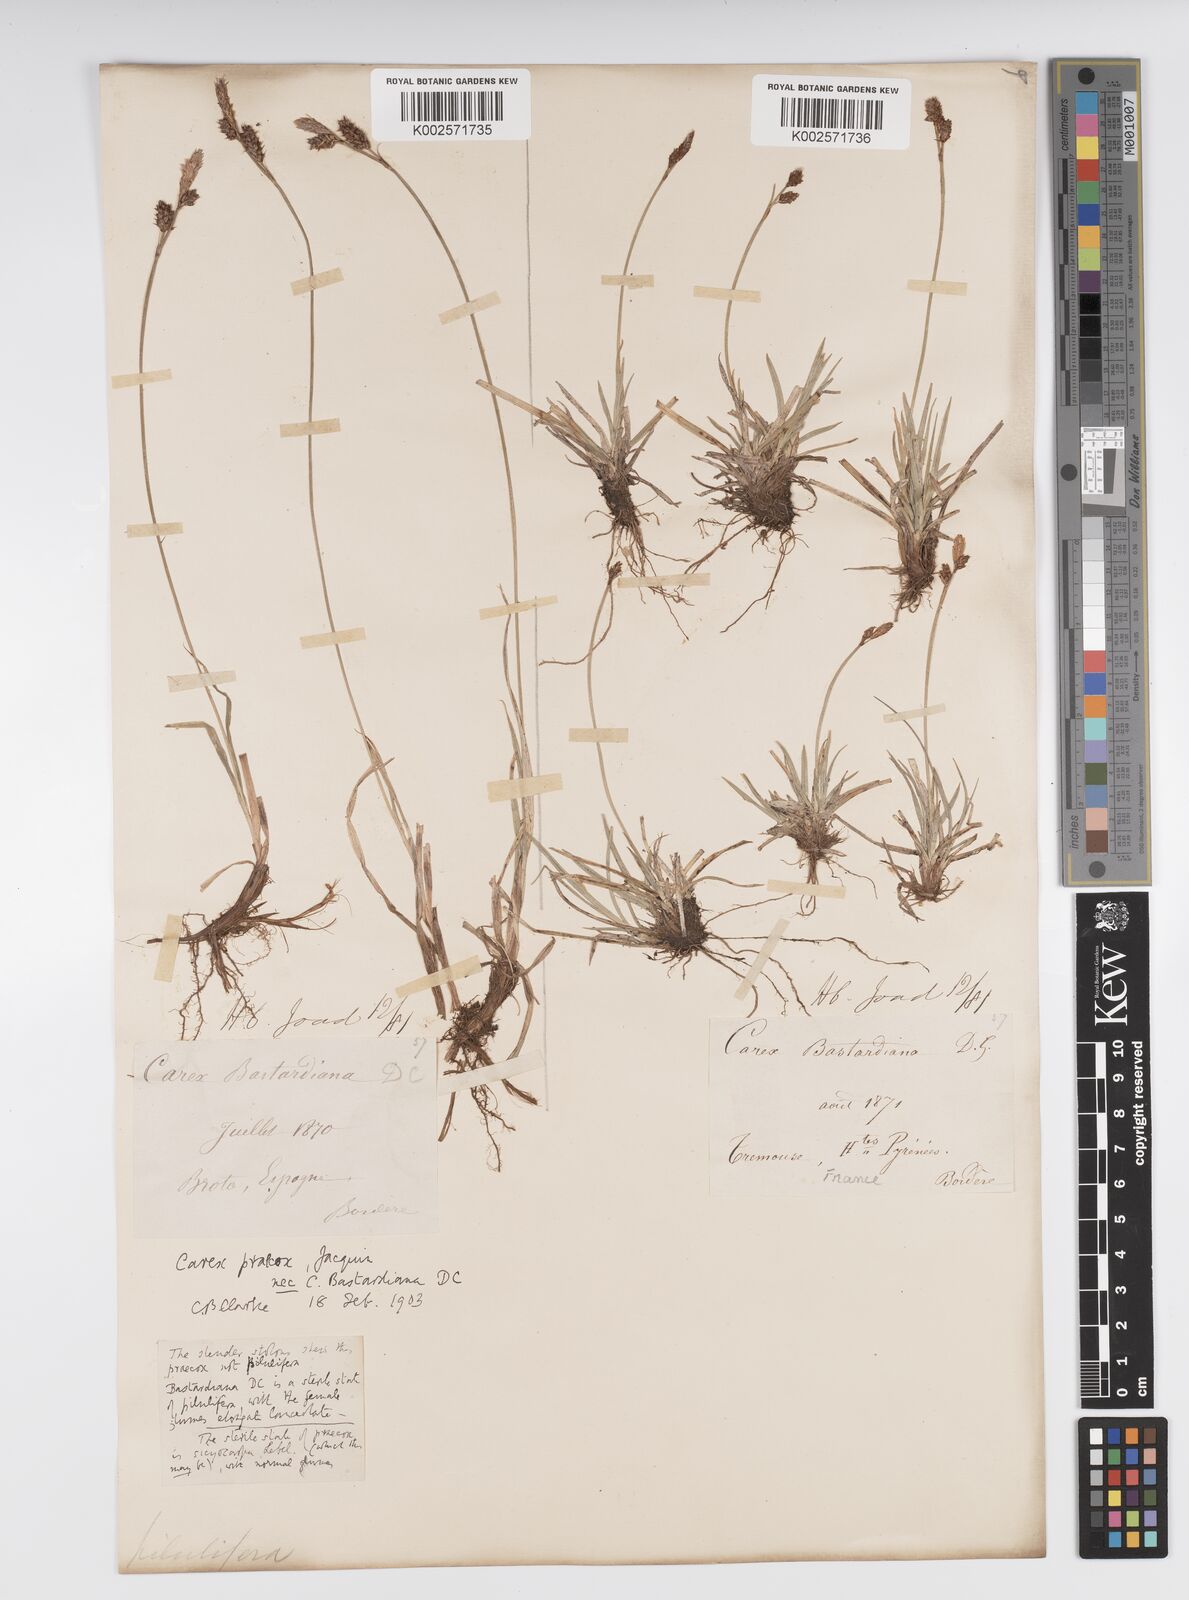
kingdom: Plantae
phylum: Tracheophyta
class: Liliopsida
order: Poales
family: Cyperaceae
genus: Carex
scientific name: Carex caryophyllea
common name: Spring sedge
